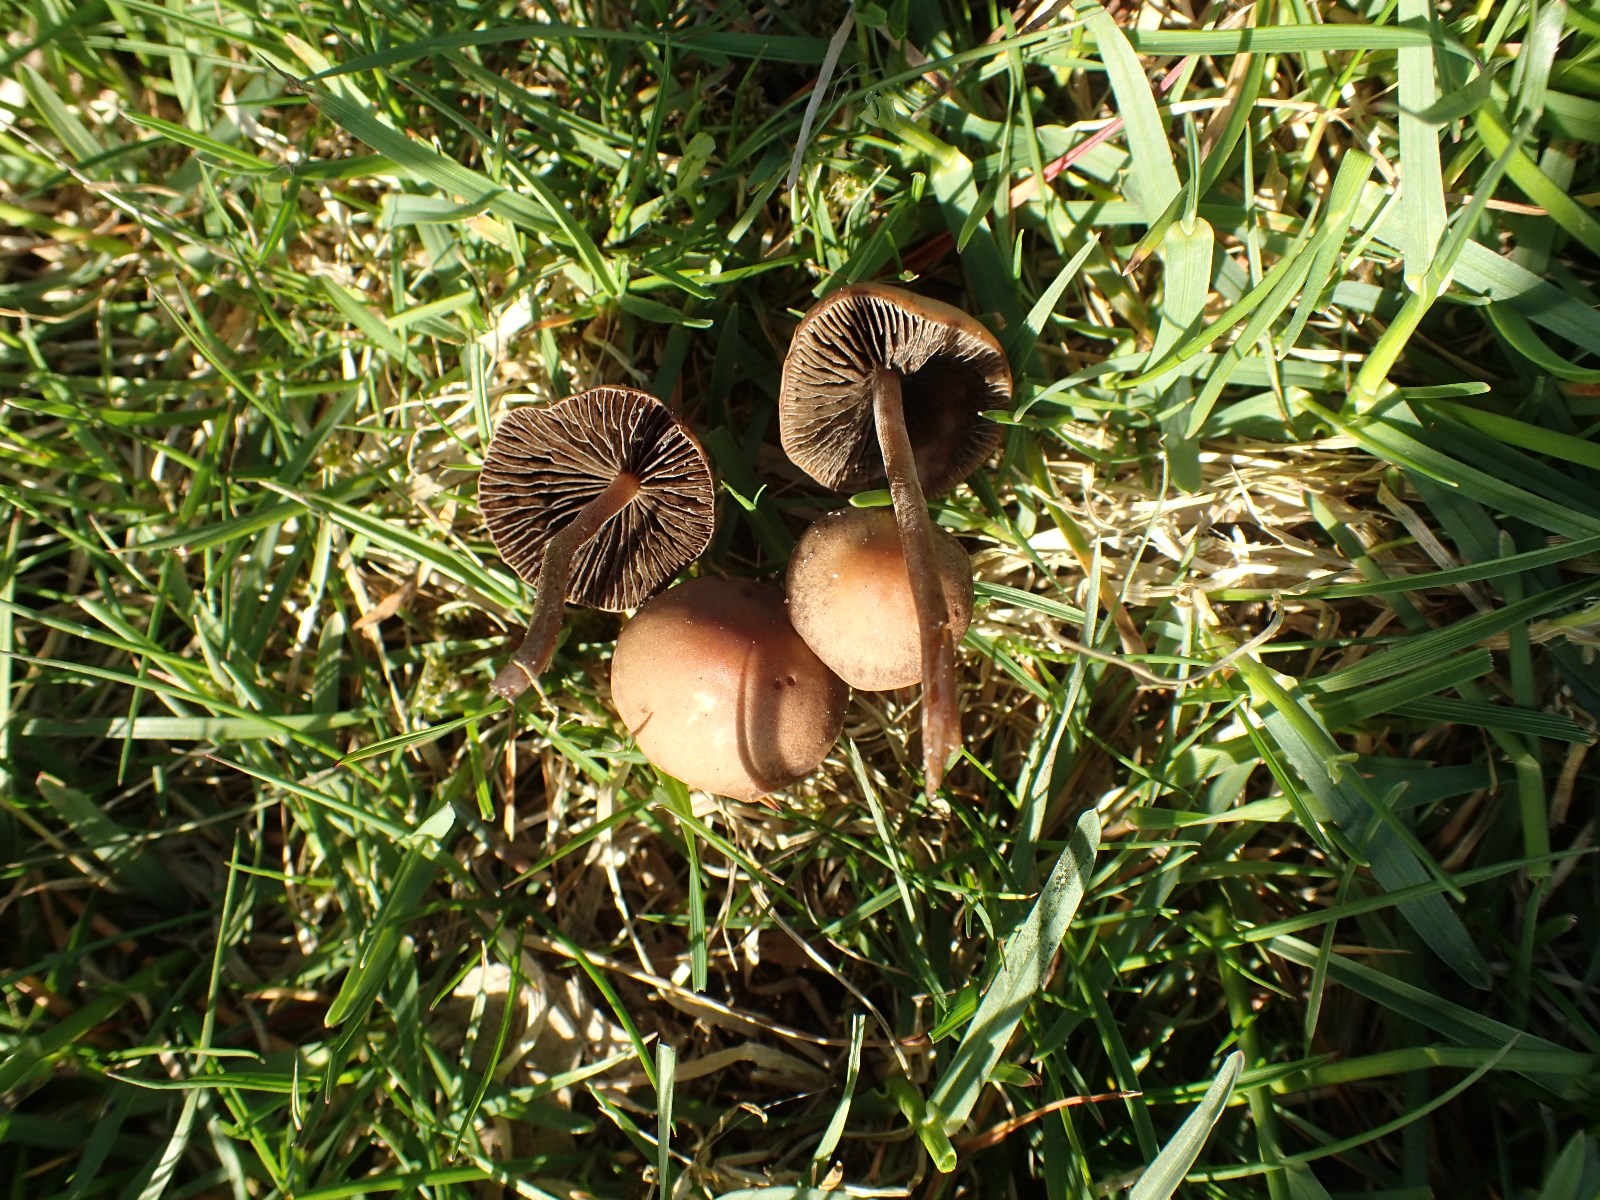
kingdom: Fungi
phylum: Basidiomycota
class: Agaricomycetes
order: Agaricales
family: Bolbitiaceae
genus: Panaeolus
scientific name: Panaeolus fimicola
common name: tidlig glanshat
